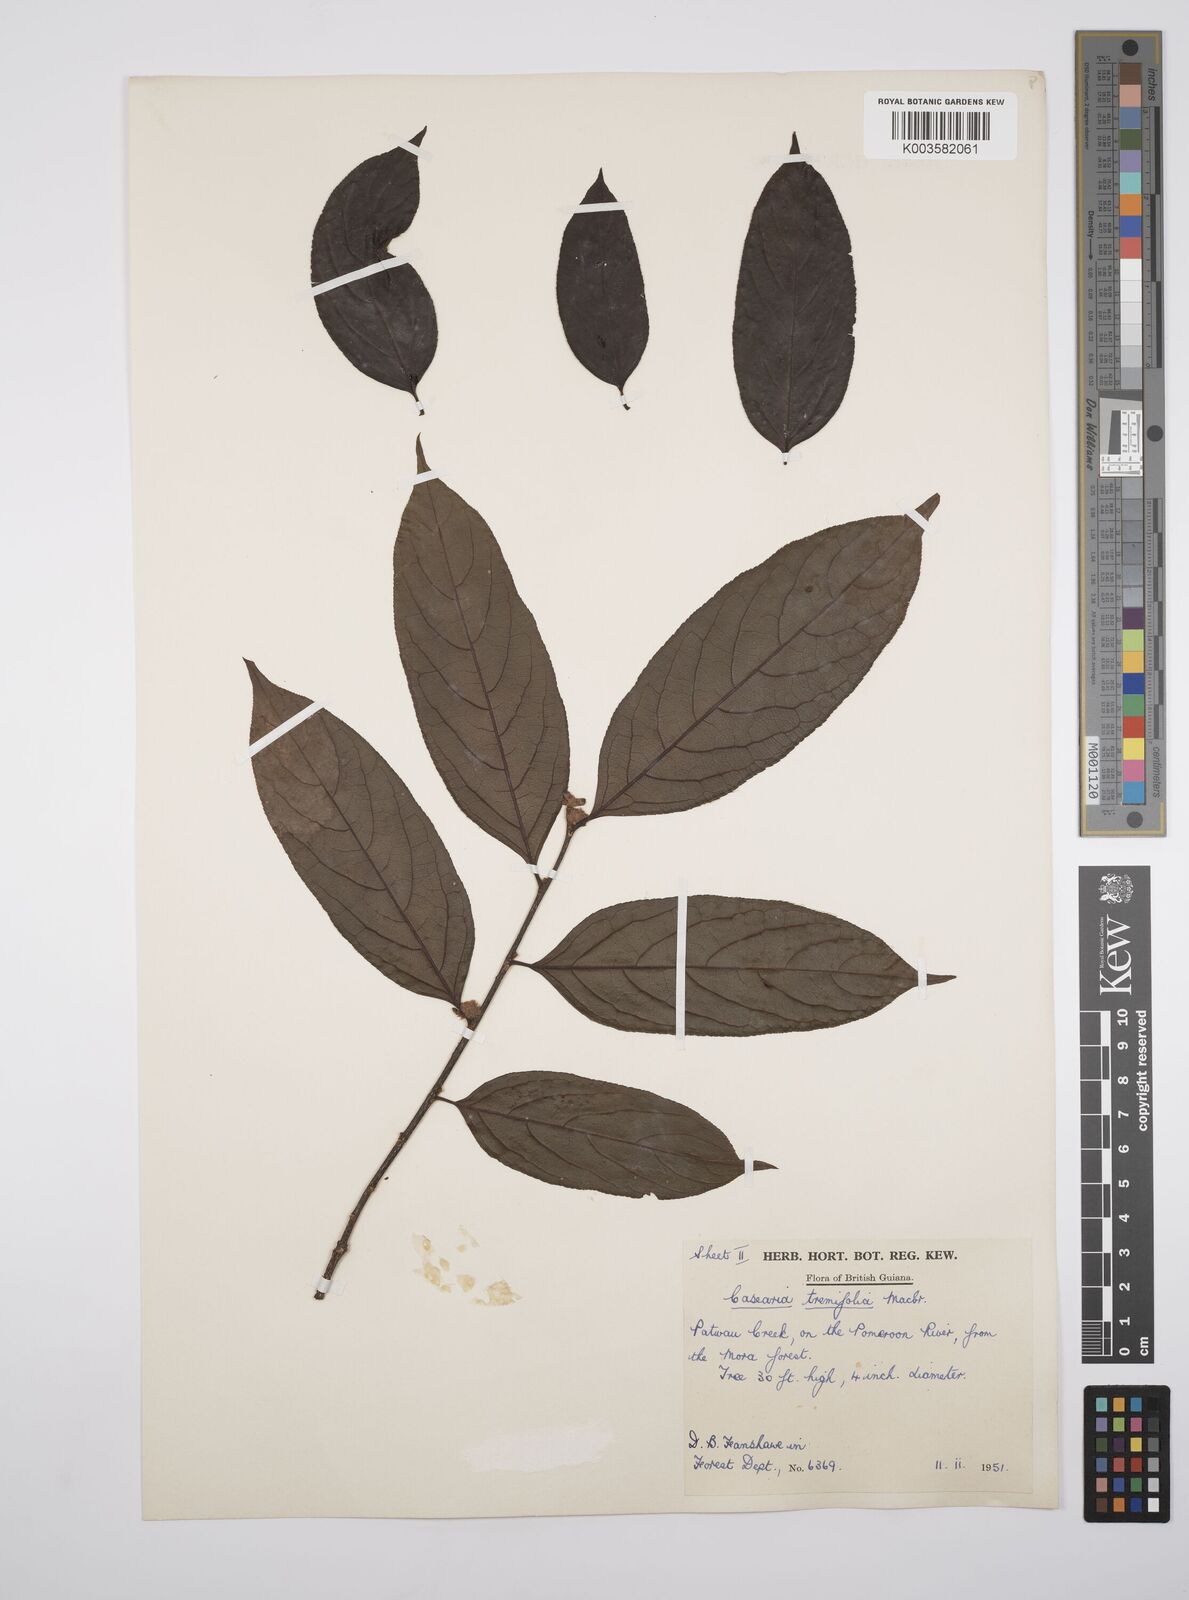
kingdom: Plantae
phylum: Tracheophyta
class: Magnoliopsida
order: Malpighiales
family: Salicaceae
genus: Casearia
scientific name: Casearia ulmifolia
